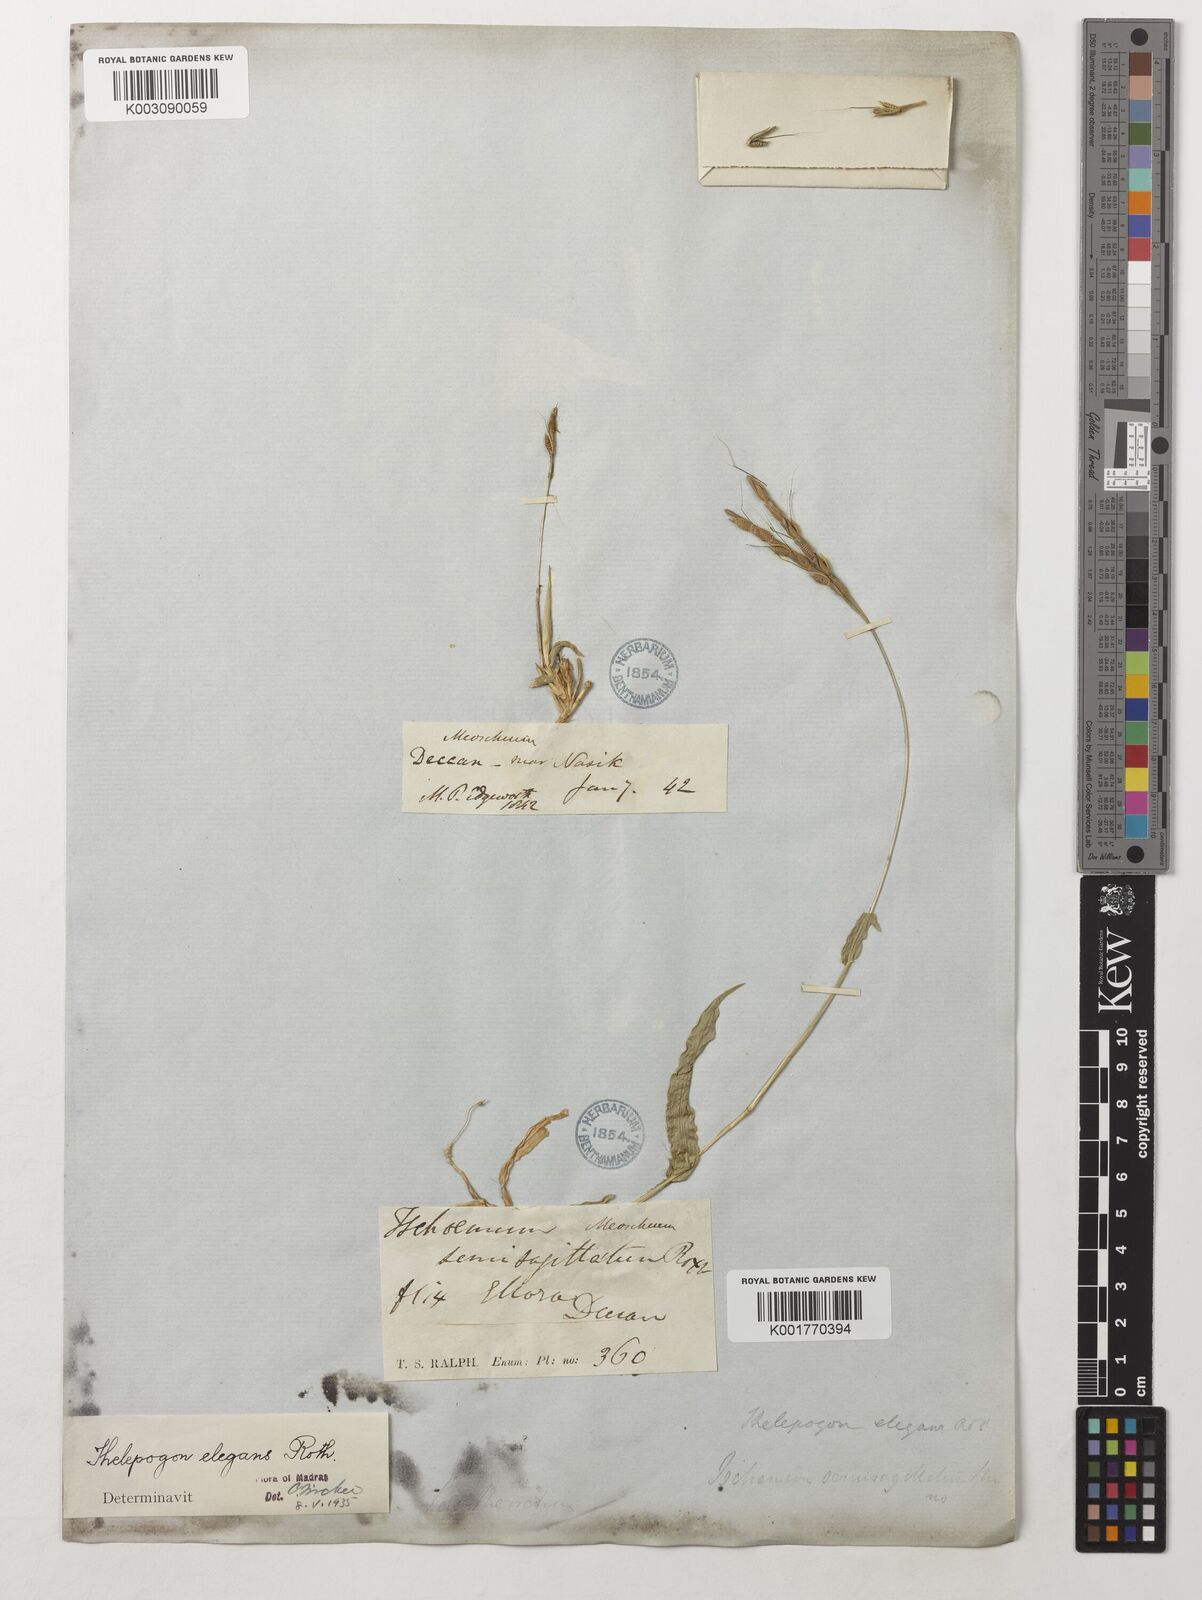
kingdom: Plantae
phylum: Tracheophyta
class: Liliopsida
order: Poales
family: Poaceae
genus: Thelepogon
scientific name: Thelepogon elegans
